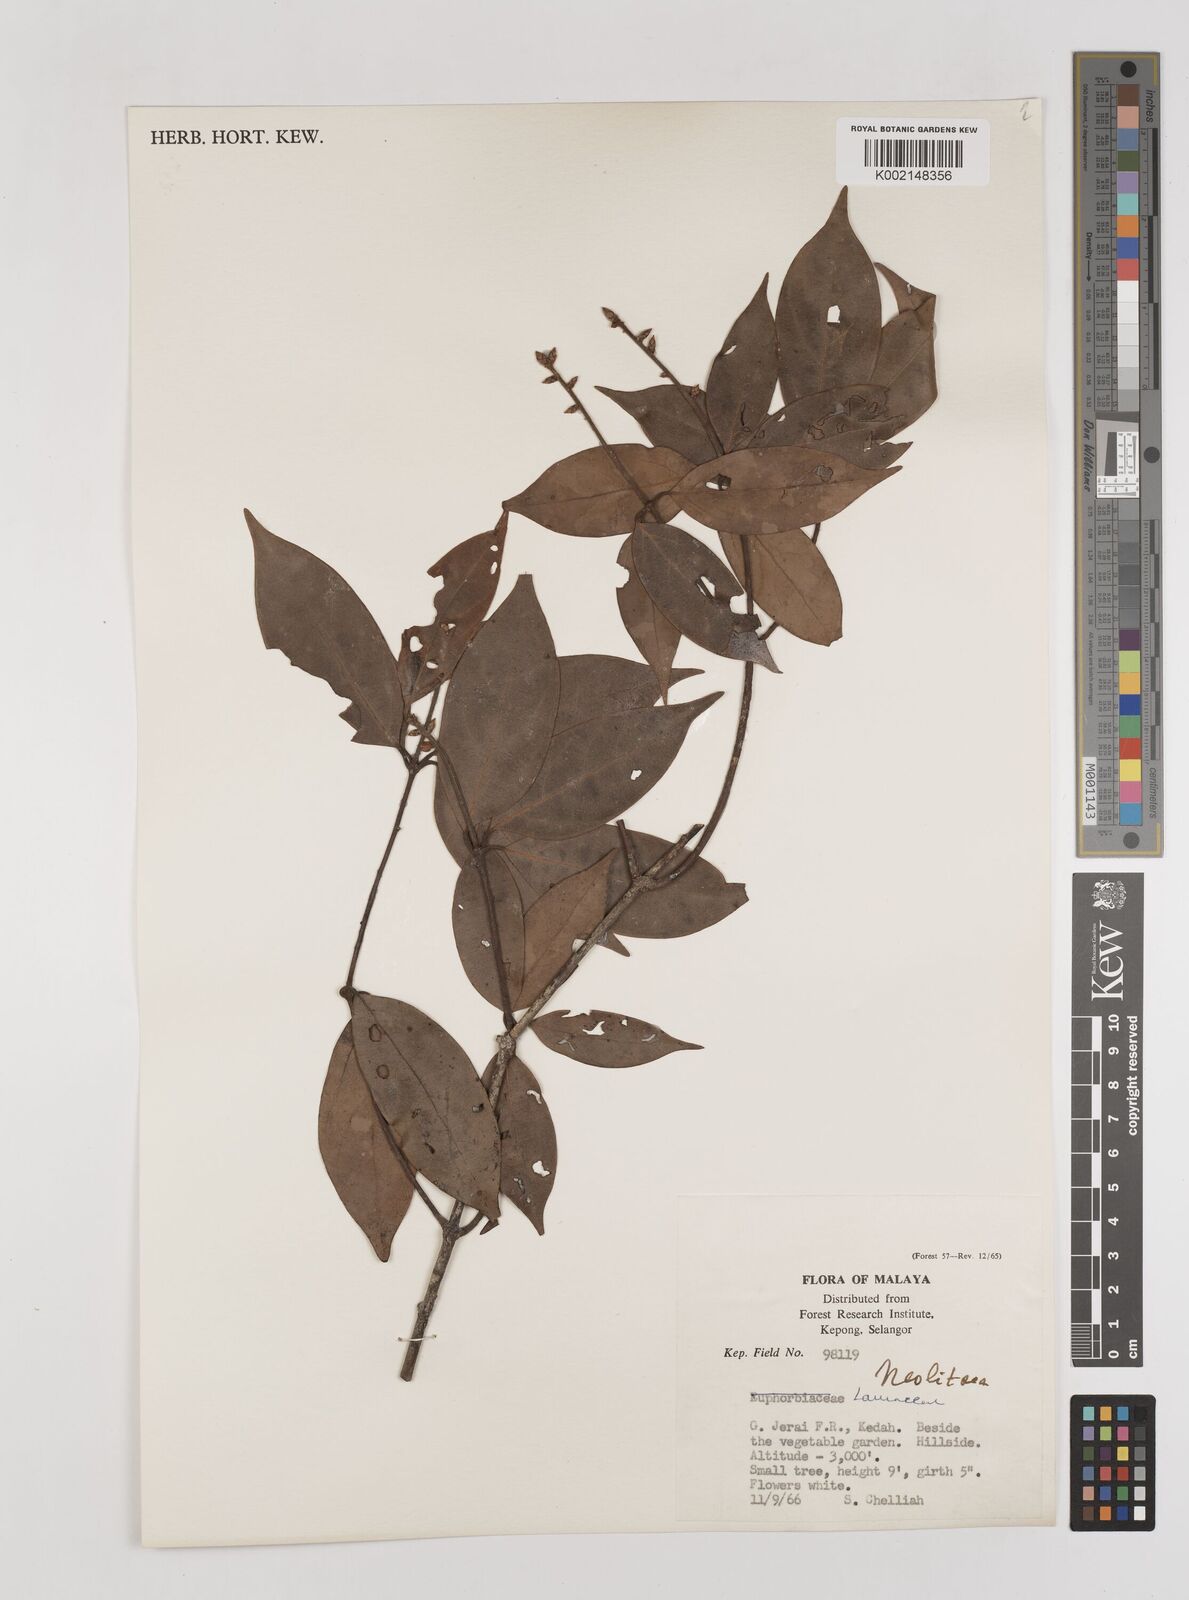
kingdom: Plantae
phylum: Tracheophyta
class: Magnoliopsida
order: Laurales
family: Lauraceae
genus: Neolitsea
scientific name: Neolitsea
